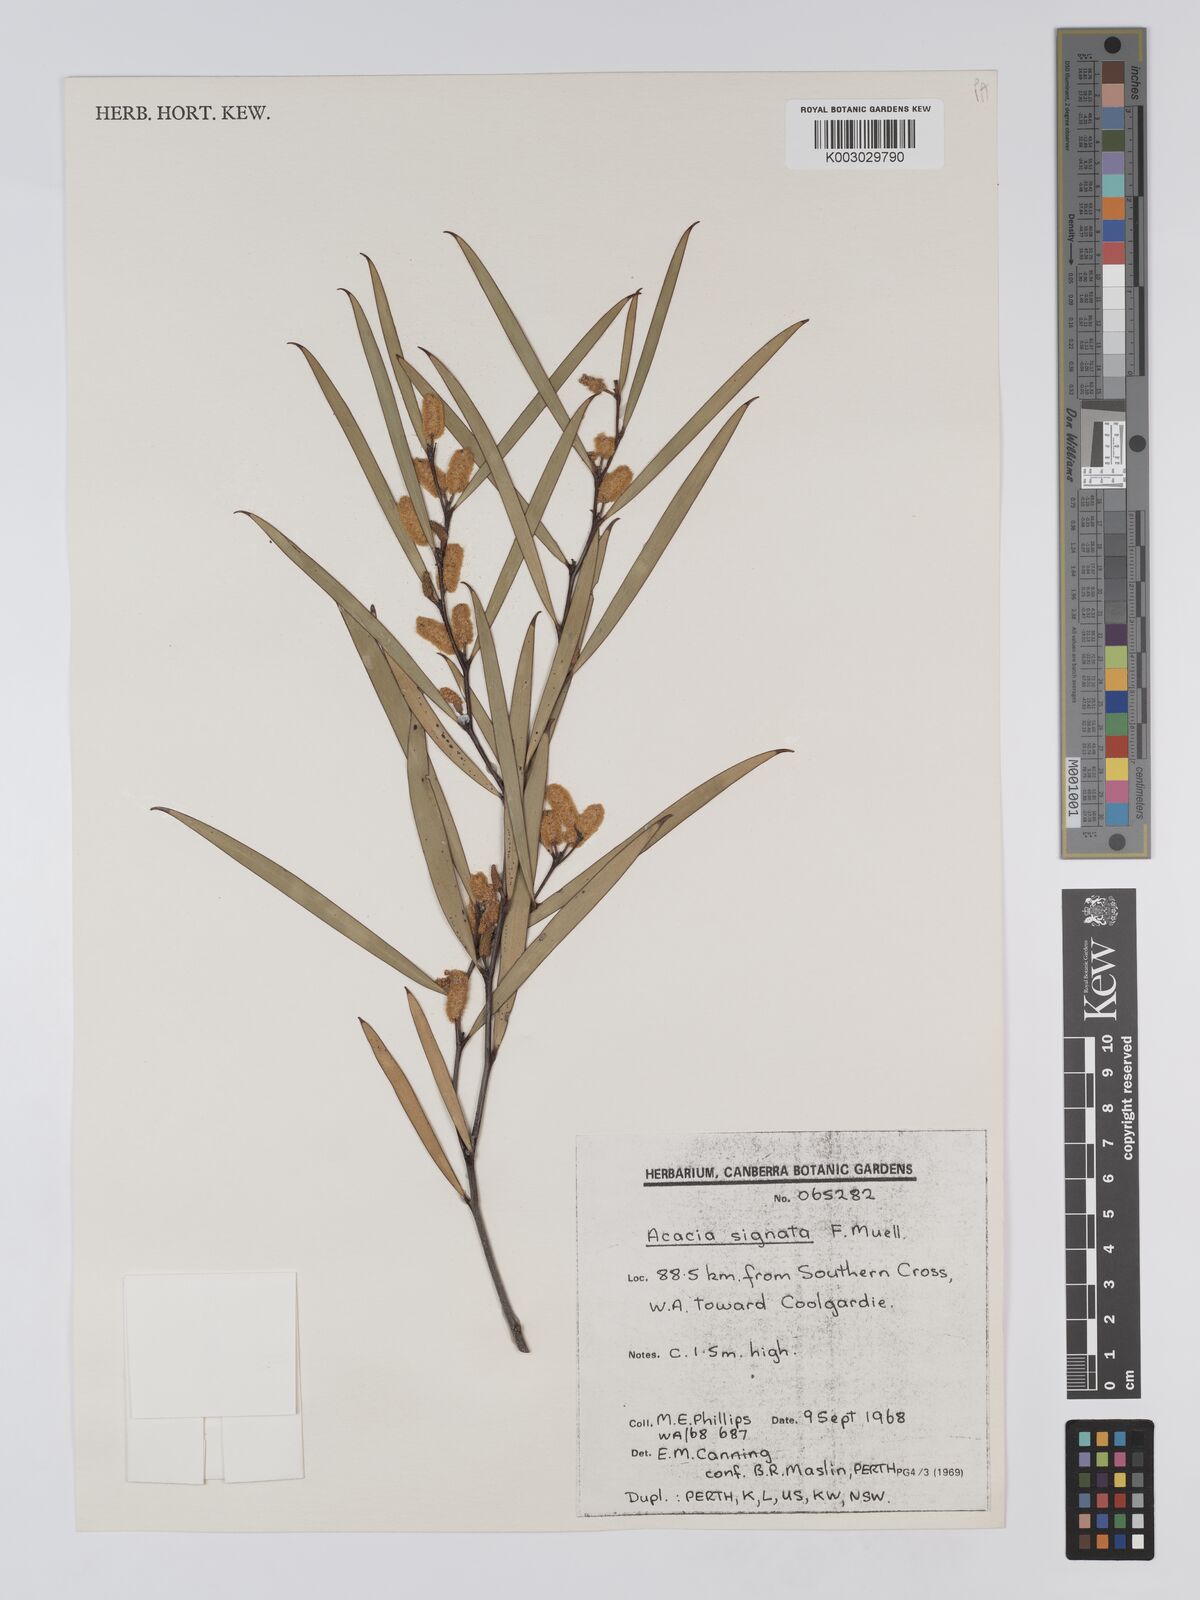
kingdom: Plantae
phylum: Tracheophyta
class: Magnoliopsida
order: Fabales
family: Fabaceae
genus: Acacia
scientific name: Acacia signata
